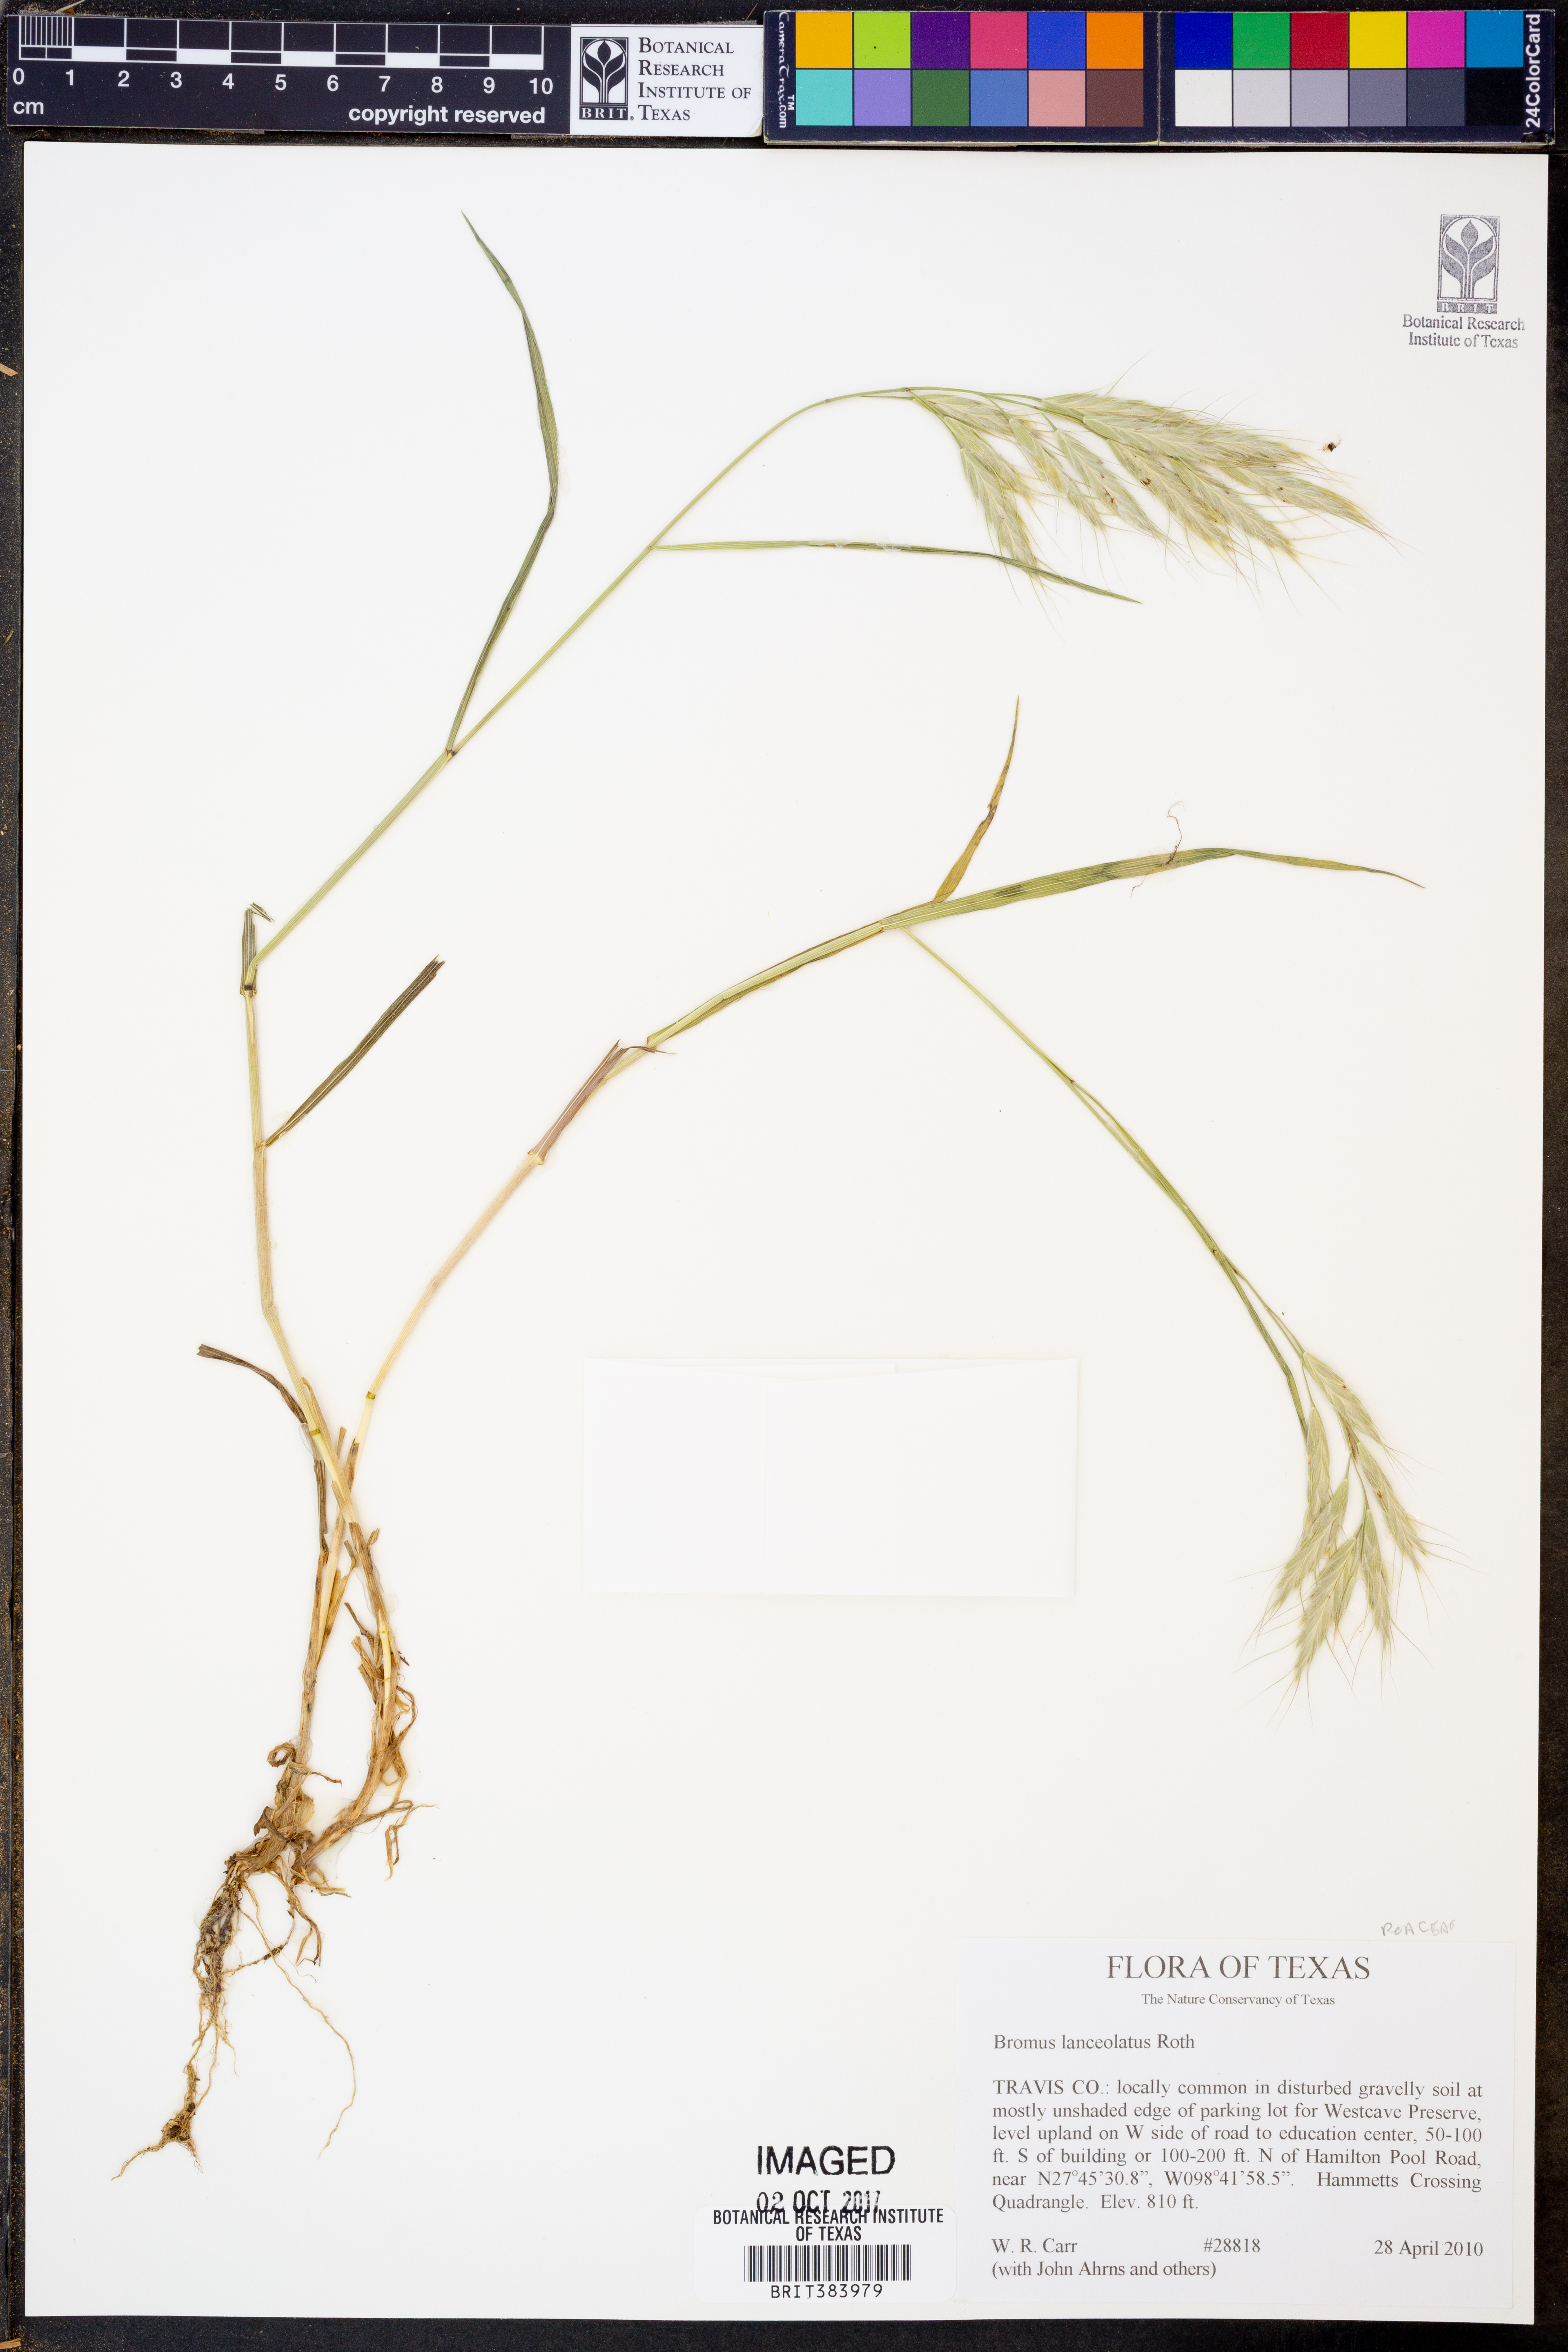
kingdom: Plantae
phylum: Tracheophyta
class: Liliopsida
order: Poales
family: Poaceae
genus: Bromus
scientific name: Bromus lanceolatus
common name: Mediterranean brome
